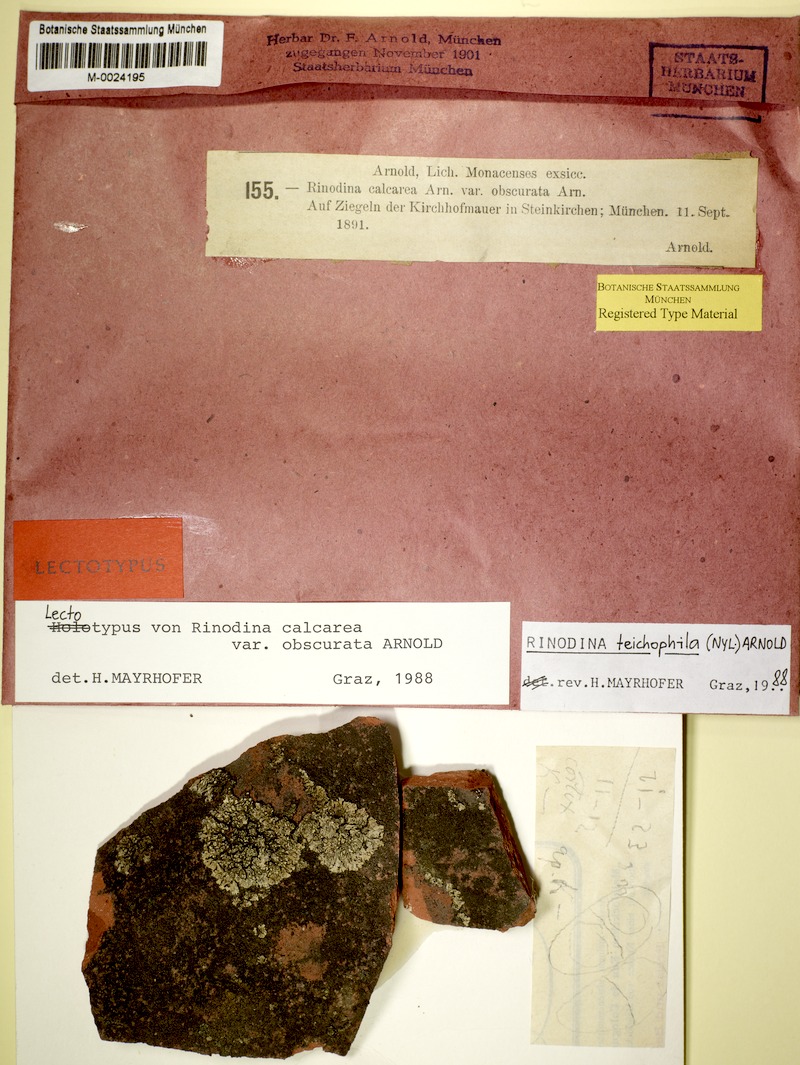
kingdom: Fungi
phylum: Ascomycota
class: Lecanoromycetes
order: Caliciales
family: Physciaceae
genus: Rinodina
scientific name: Rinodina teichophila
